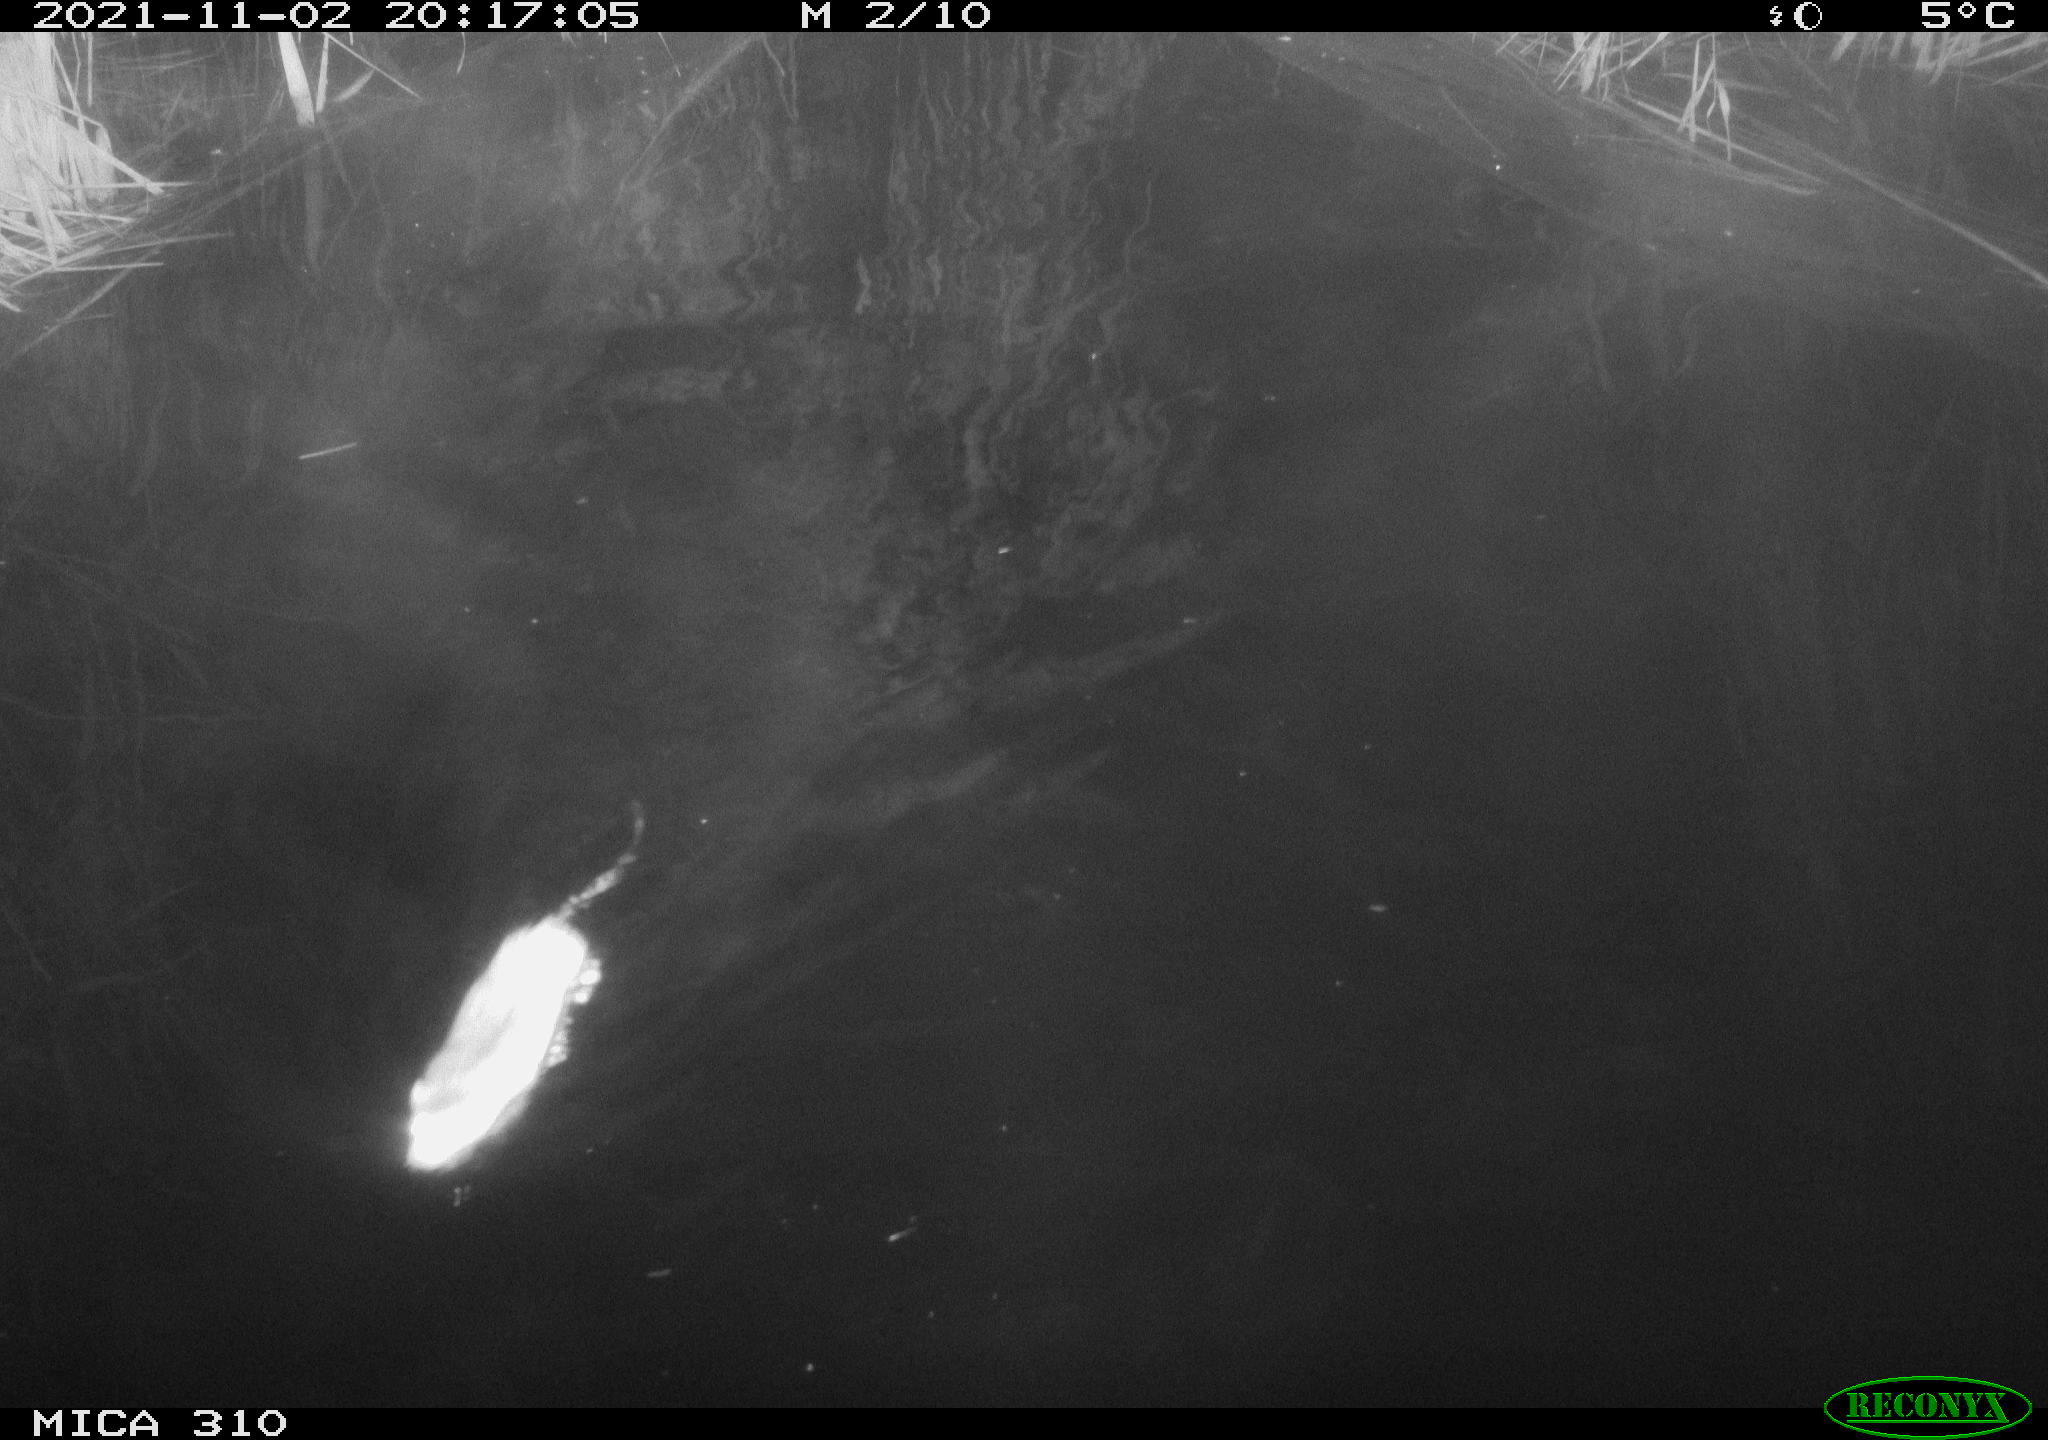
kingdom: Animalia
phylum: Chordata
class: Mammalia
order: Rodentia
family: Muridae
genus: Rattus
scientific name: Rattus norvegicus
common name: Brown rat
